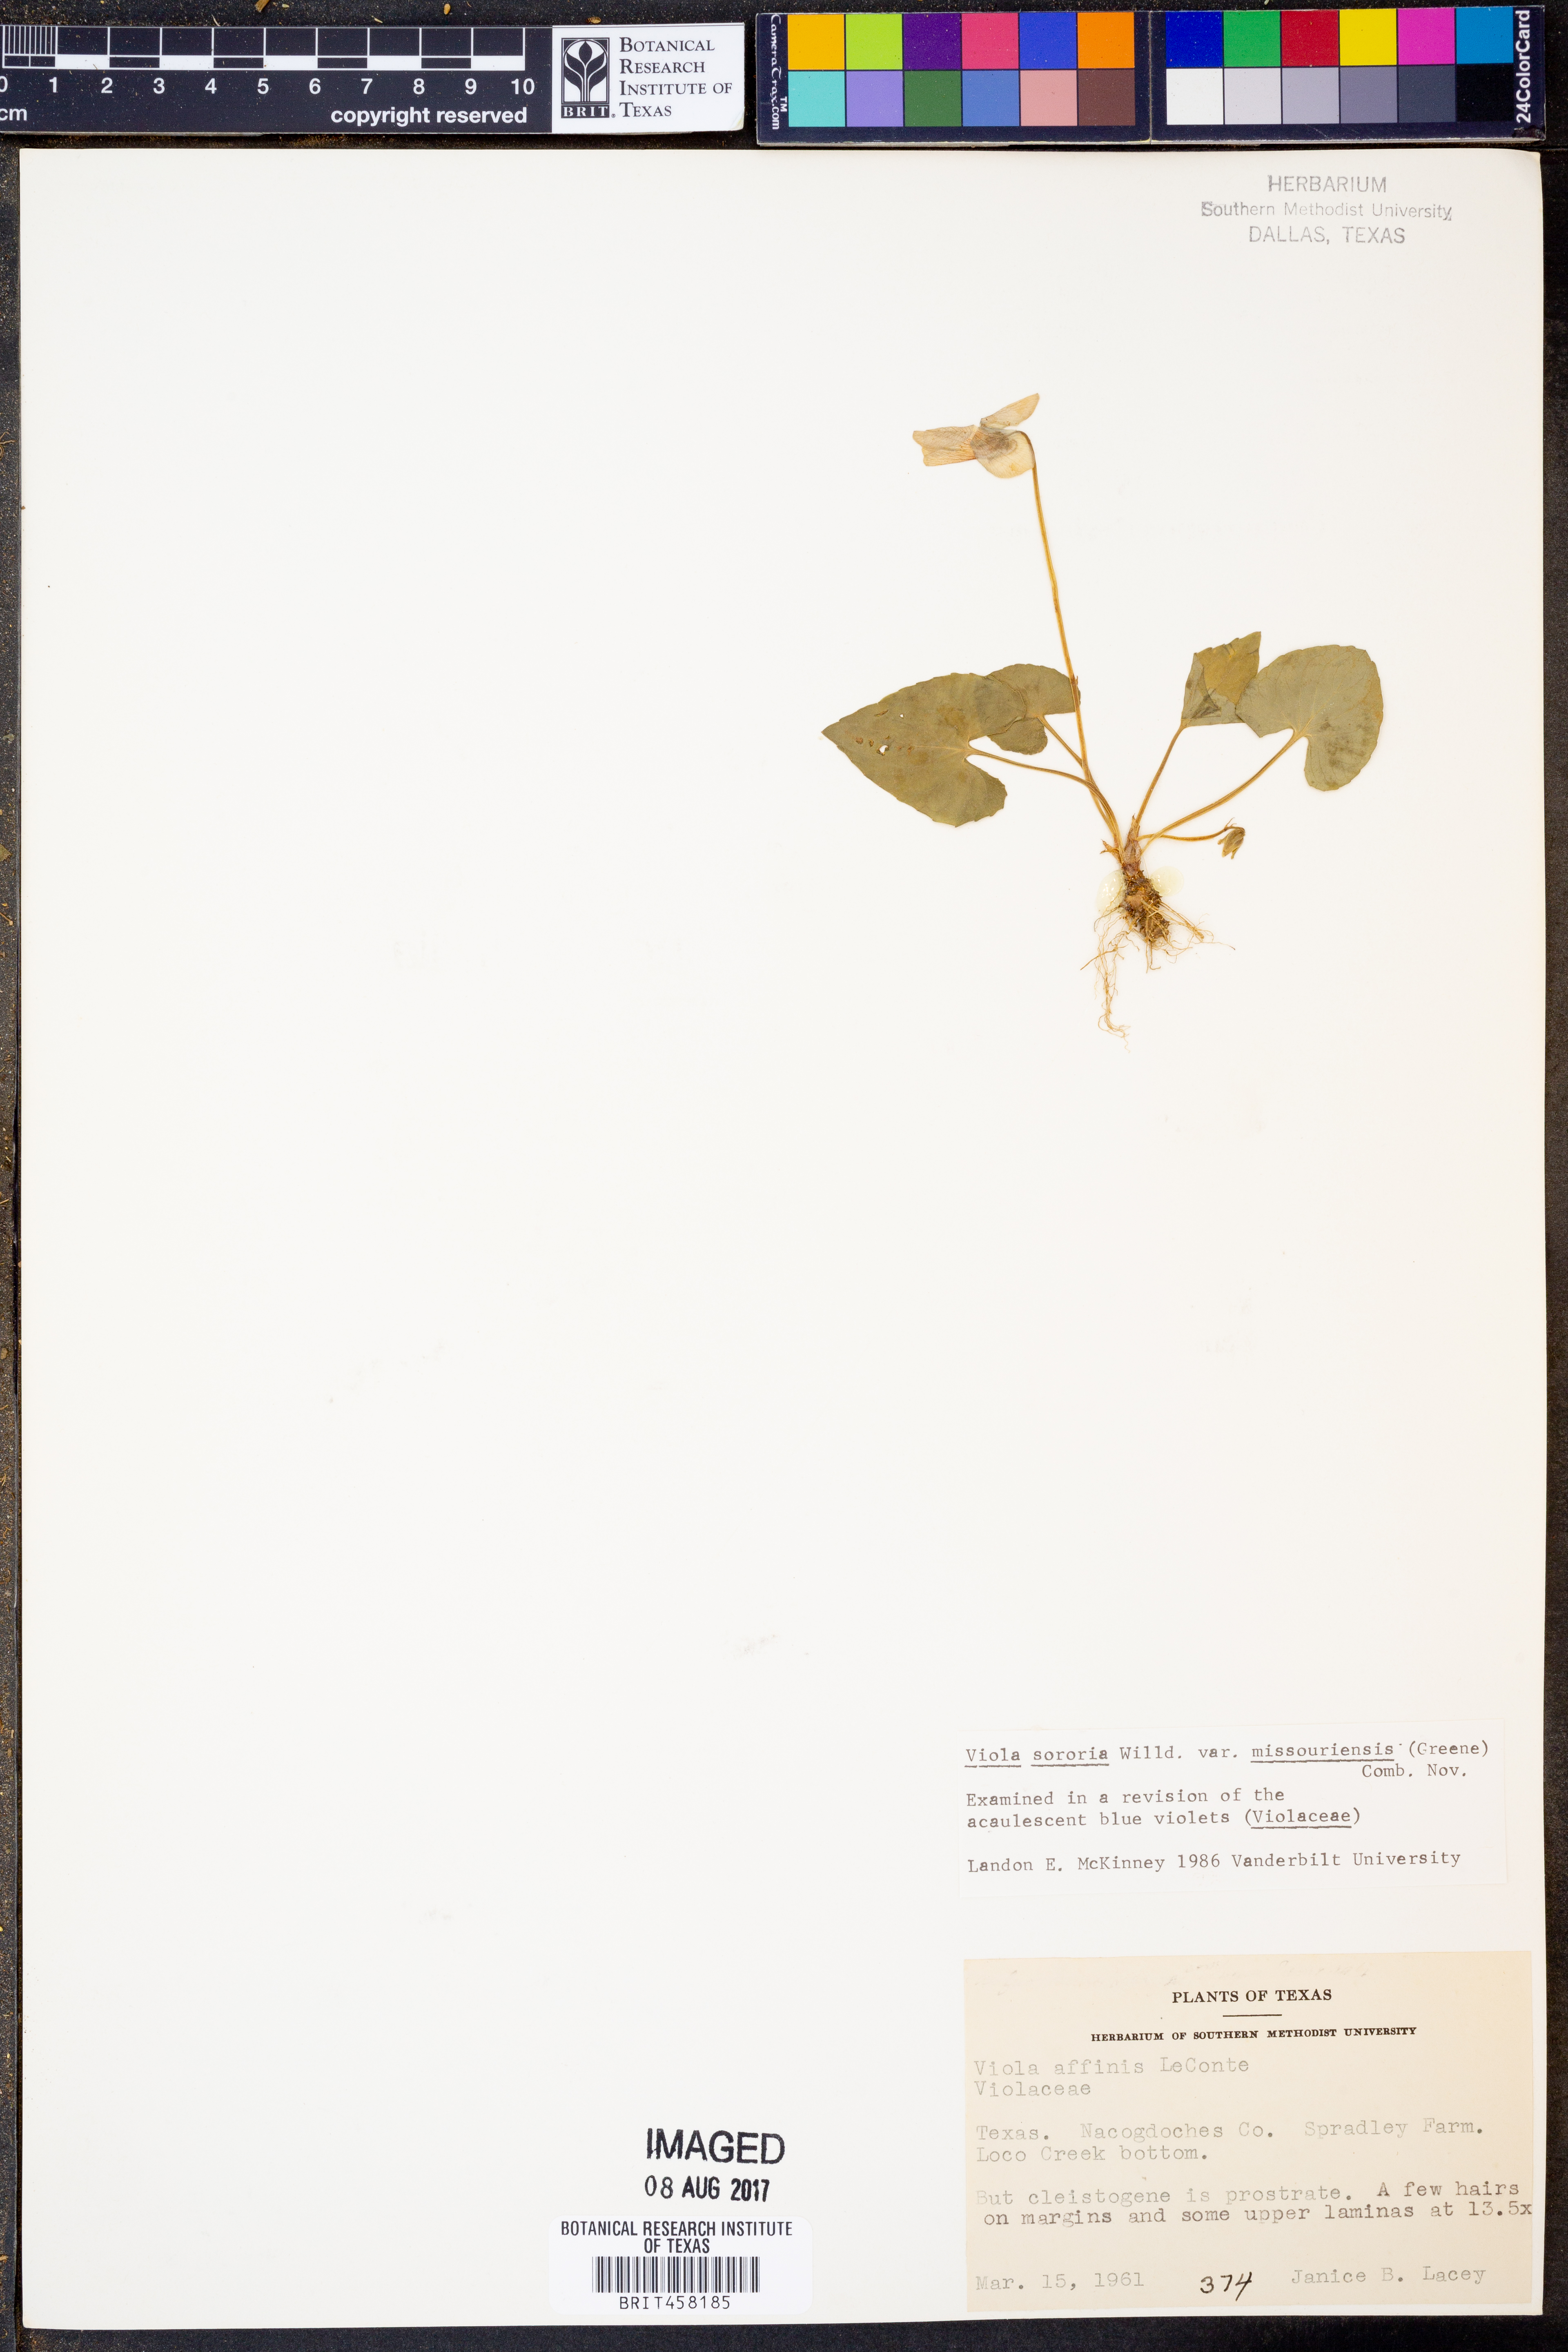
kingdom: Plantae
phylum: Tracheophyta
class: Magnoliopsida
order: Malpighiales
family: Violaceae
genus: Viola
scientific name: Viola missouriensis
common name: Missouri violet
